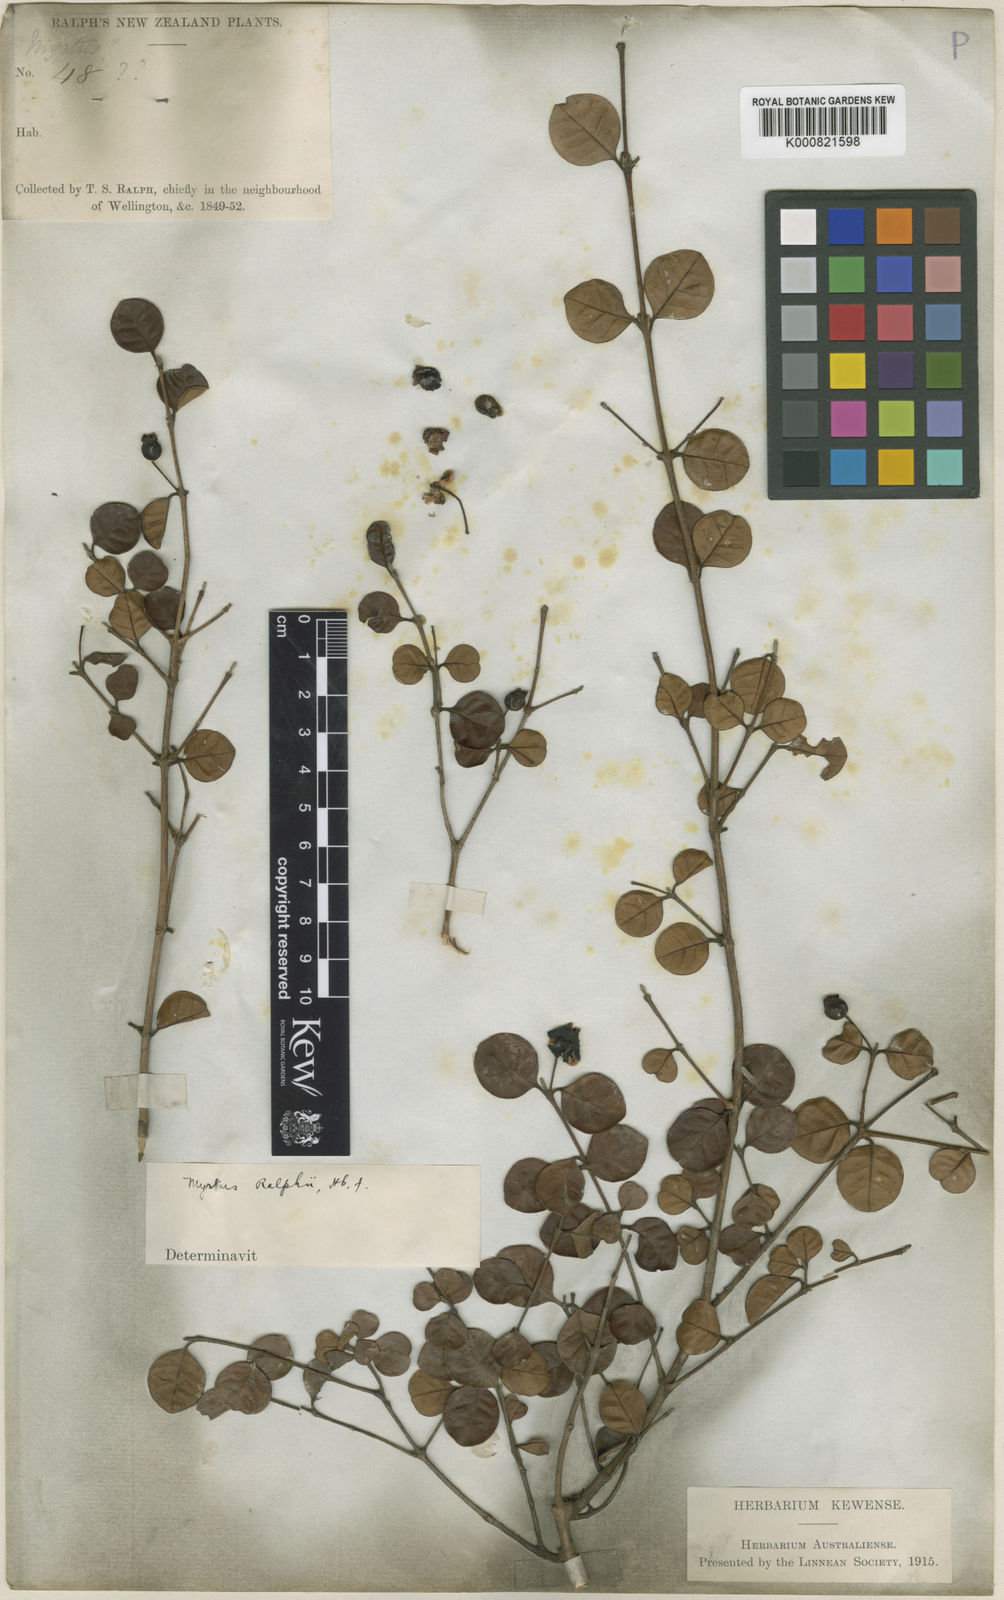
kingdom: Plantae
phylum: Tracheophyta
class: Magnoliopsida
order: Myrtales
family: Myrtaceae
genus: Lophomyrtus
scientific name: Lophomyrtus ralphii
